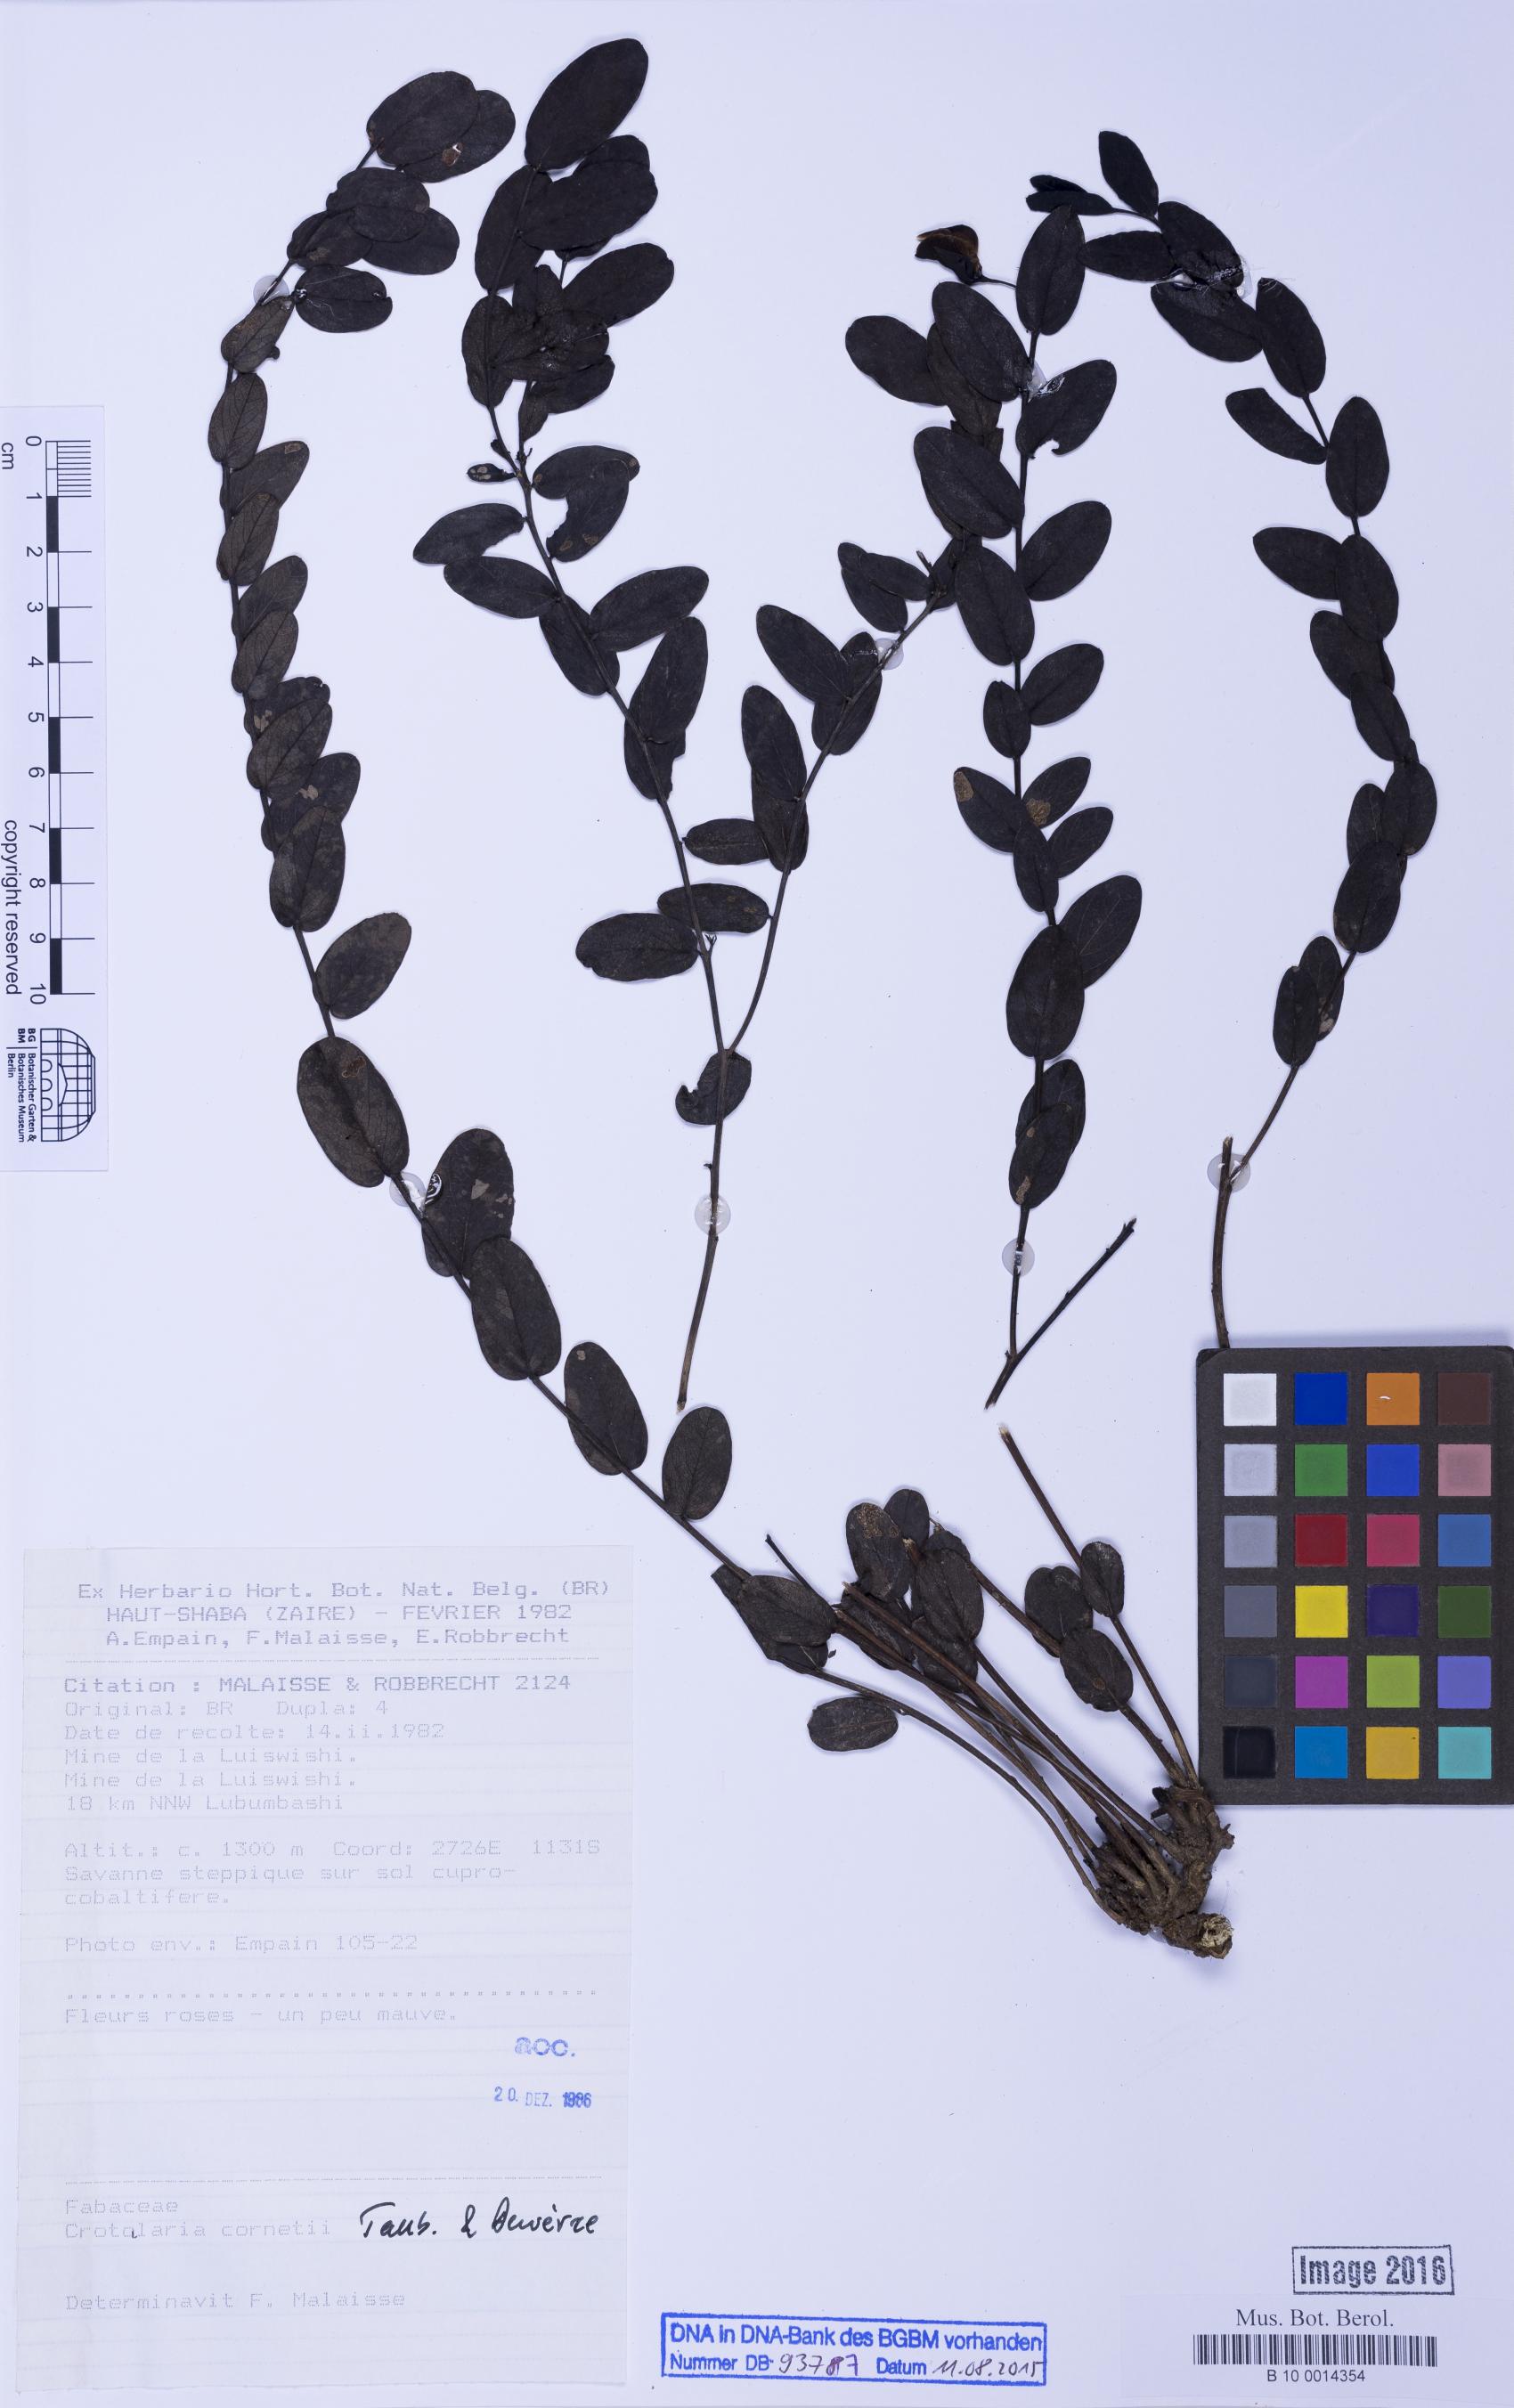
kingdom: Plantae
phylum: Tracheophyta
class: Magnoliopsida
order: Fabales
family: Fabaceae
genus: Crotalaria
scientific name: Crotalaria cornetii
